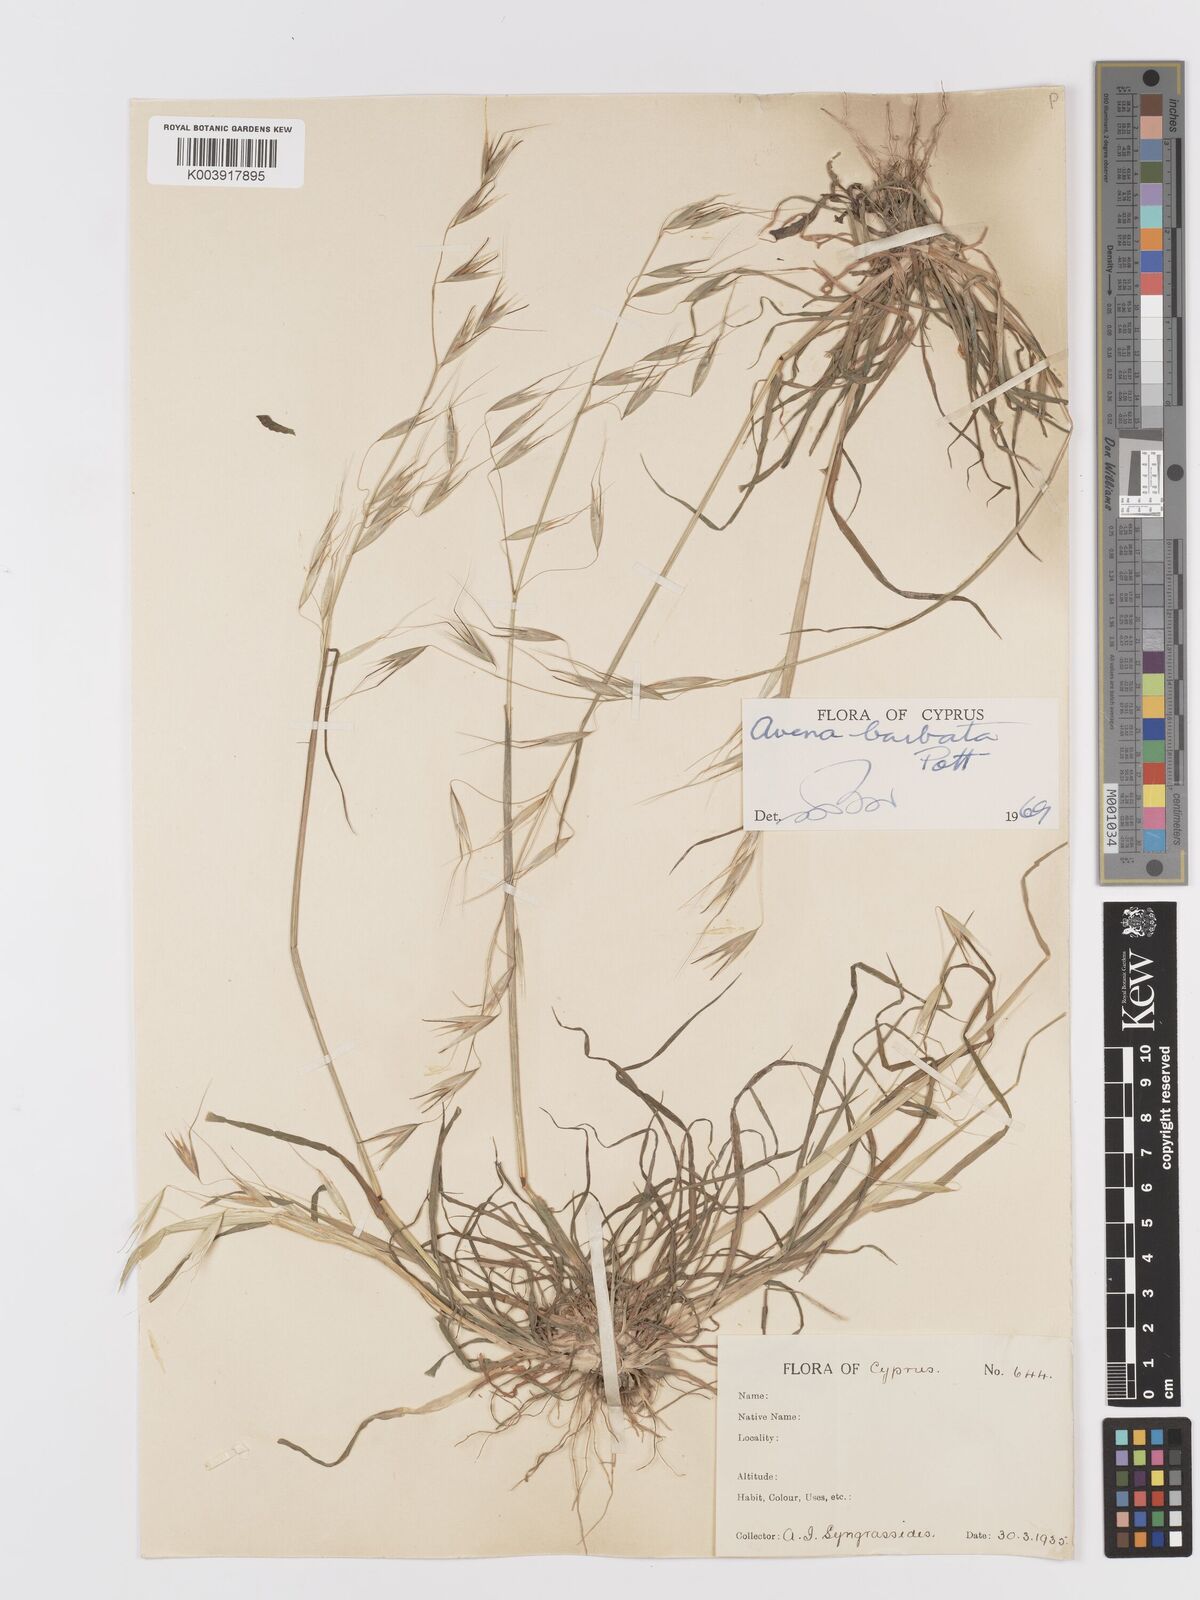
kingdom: Plantae
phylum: Tracheophyta
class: Liliopsida
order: Poales
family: Poaceae
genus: Avena
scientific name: Avena
